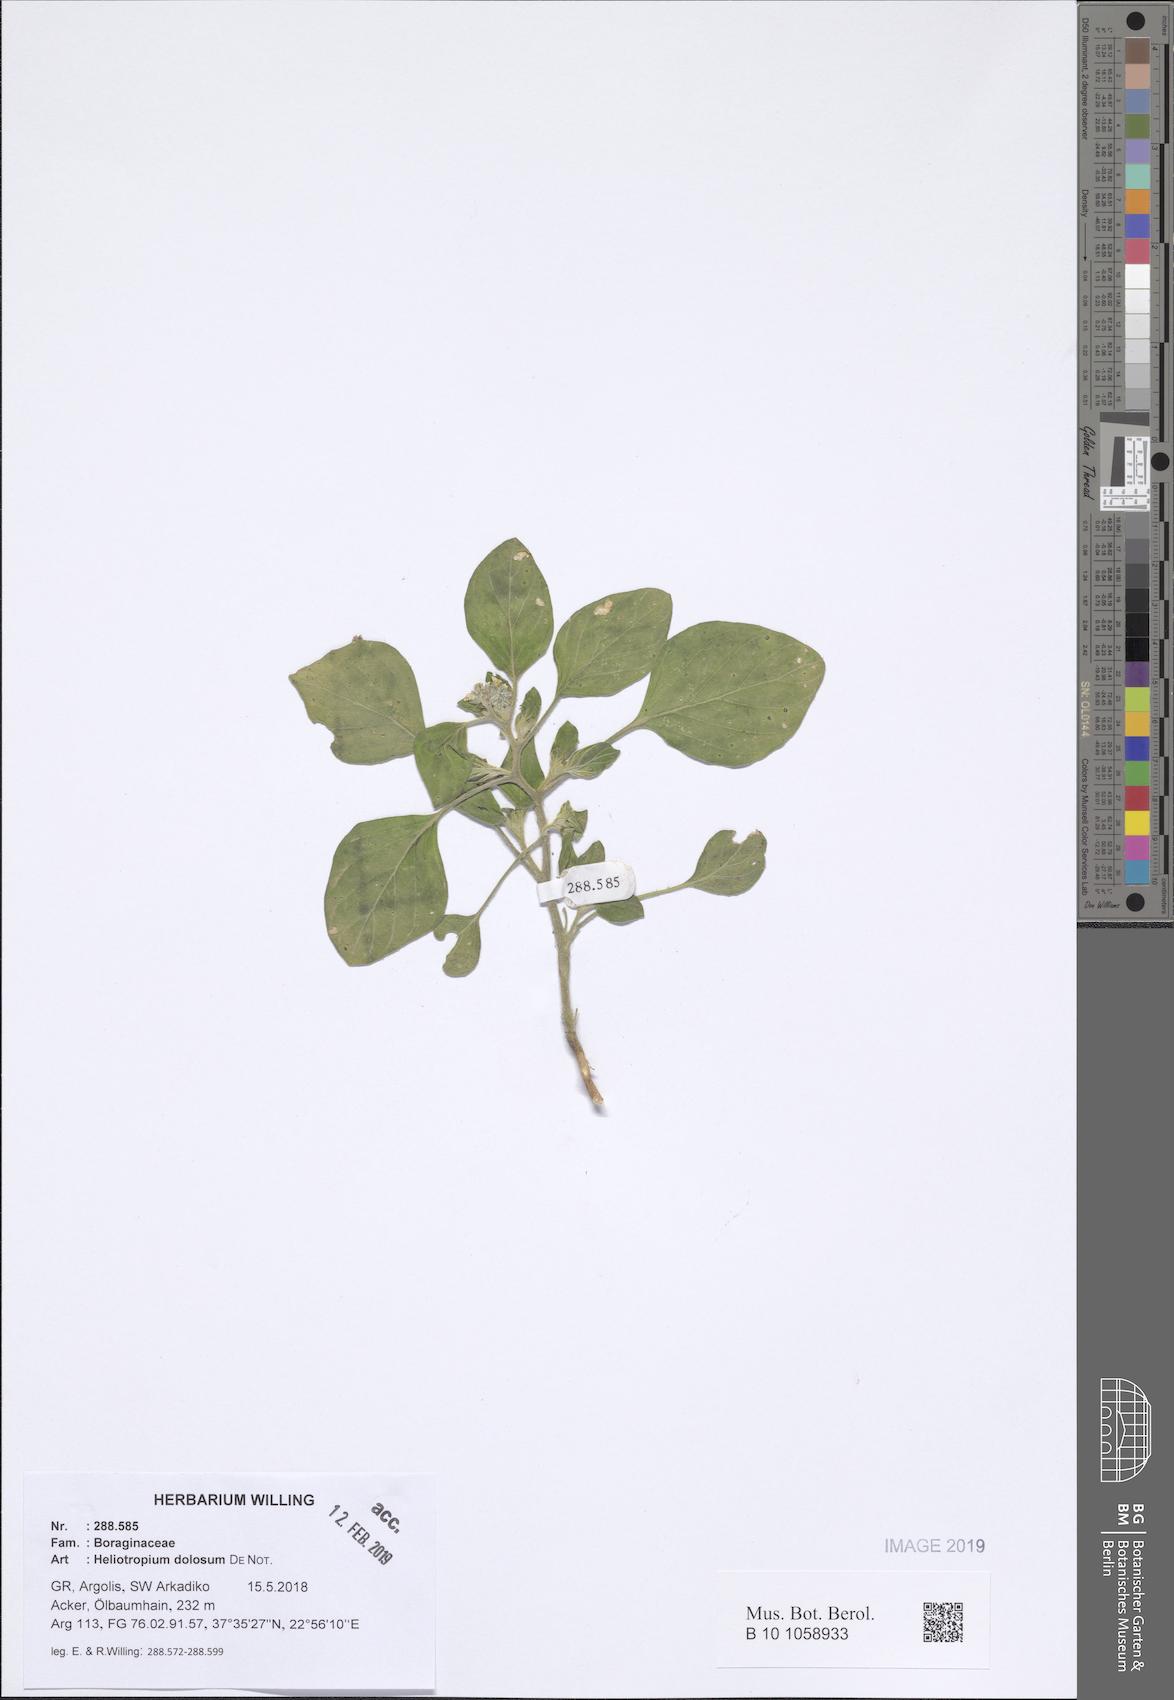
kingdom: Plantae
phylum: Tracheophyta
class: Magnoliopsida
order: Boraginales
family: Heliotropiaceae
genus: Heliotropium
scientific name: Heliotropium dolosum
